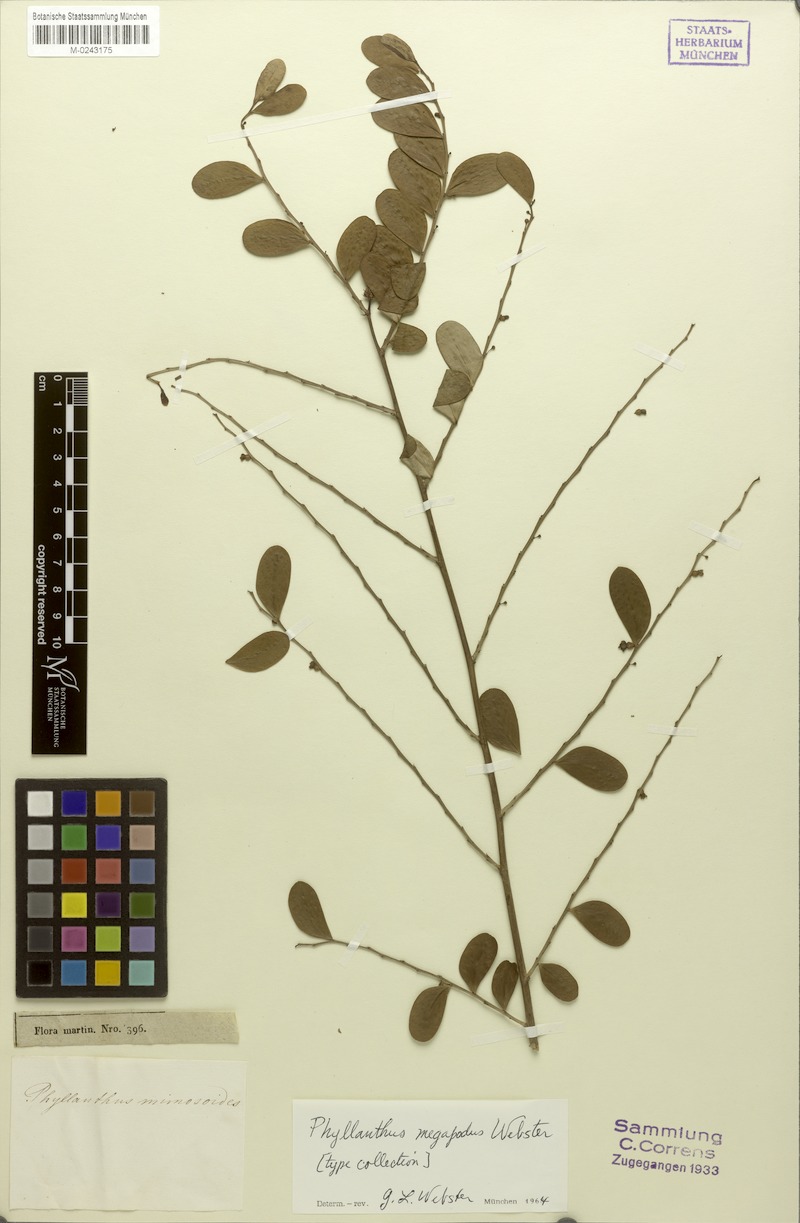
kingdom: Plantae
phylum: Tracheophyta
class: Magnoliopsida
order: Malpighiales
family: Phyllanthaceae
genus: Phyllanthus
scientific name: Phyllanthus megapodus
